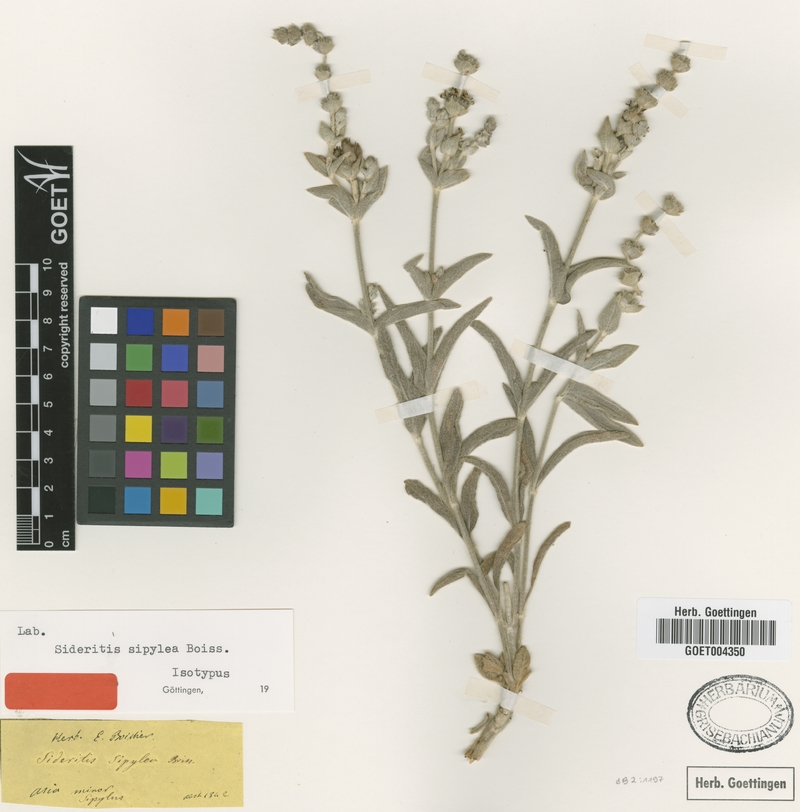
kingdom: Plantae
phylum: Tracheophyta
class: Magnoliopsida
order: Lamiales
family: Lamiaceae
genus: Sideritis
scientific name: Sideritis sipylea
